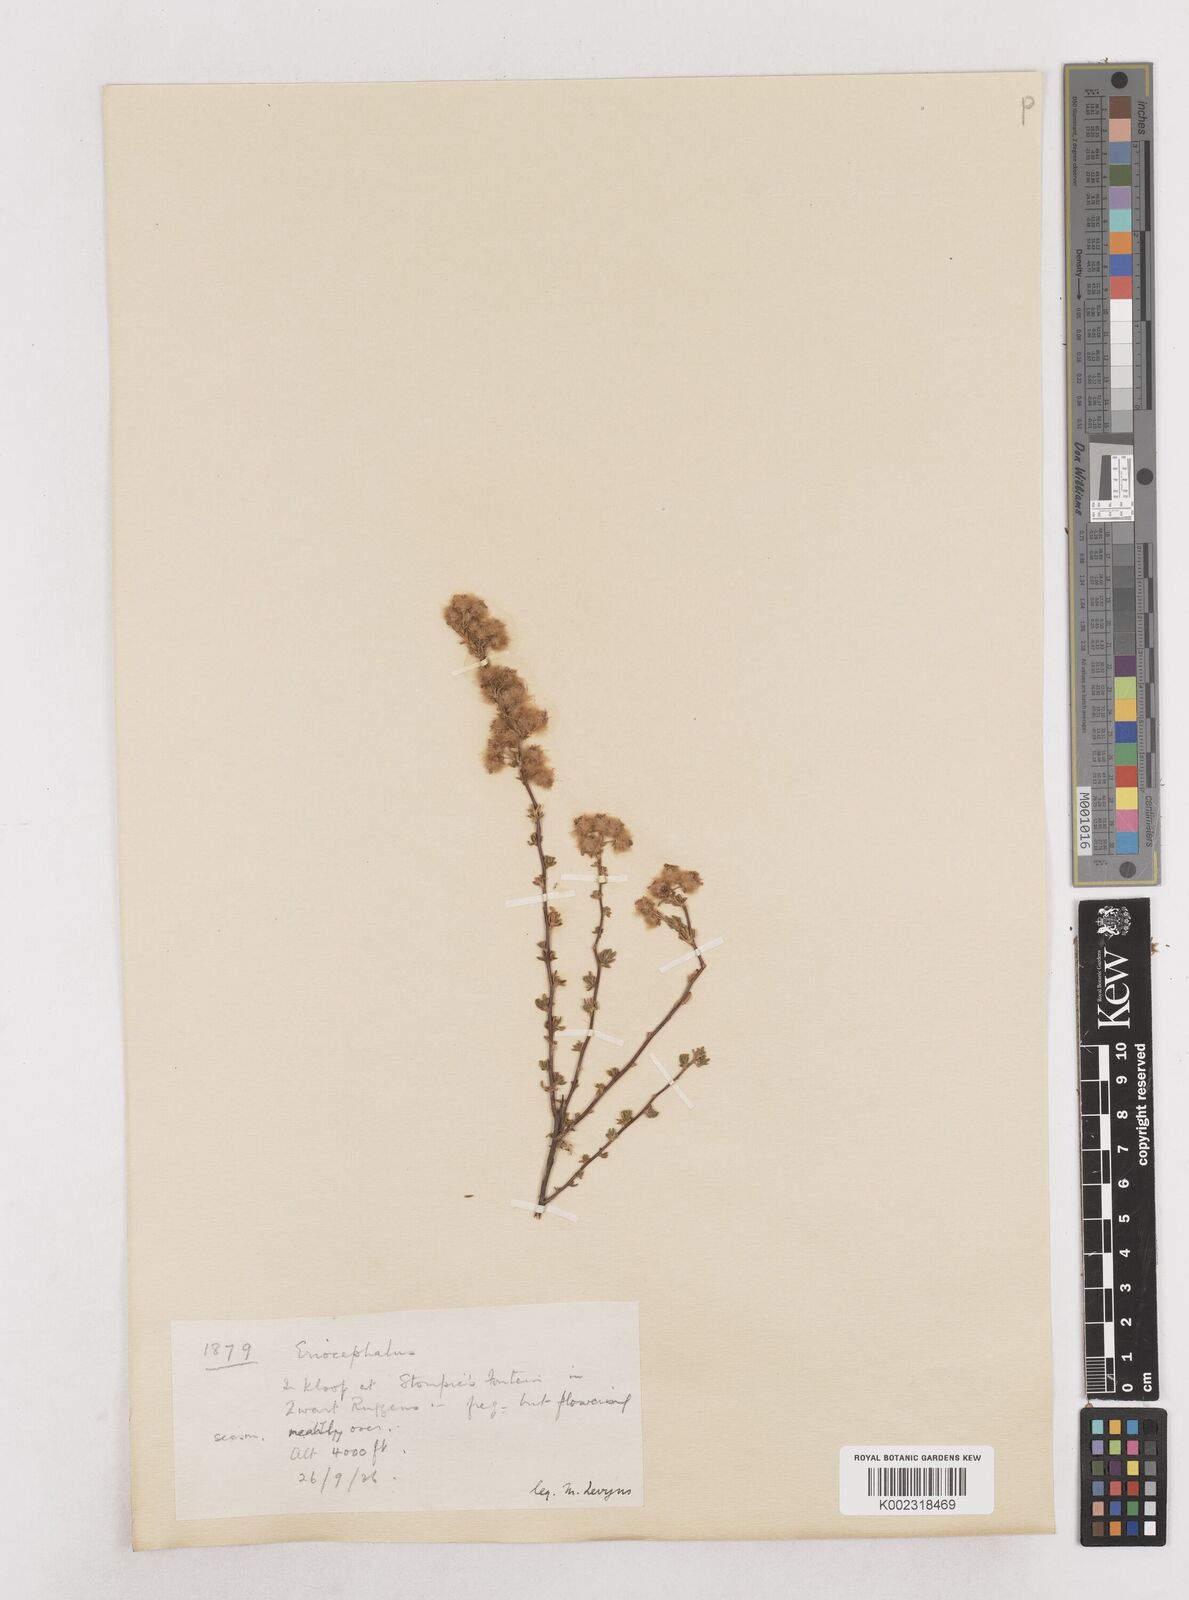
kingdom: Plantae
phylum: Tracheophyta
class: Magnoliopsida
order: Asterales
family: Asteraceae
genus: Eriocephalus
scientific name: Eriocephalus
